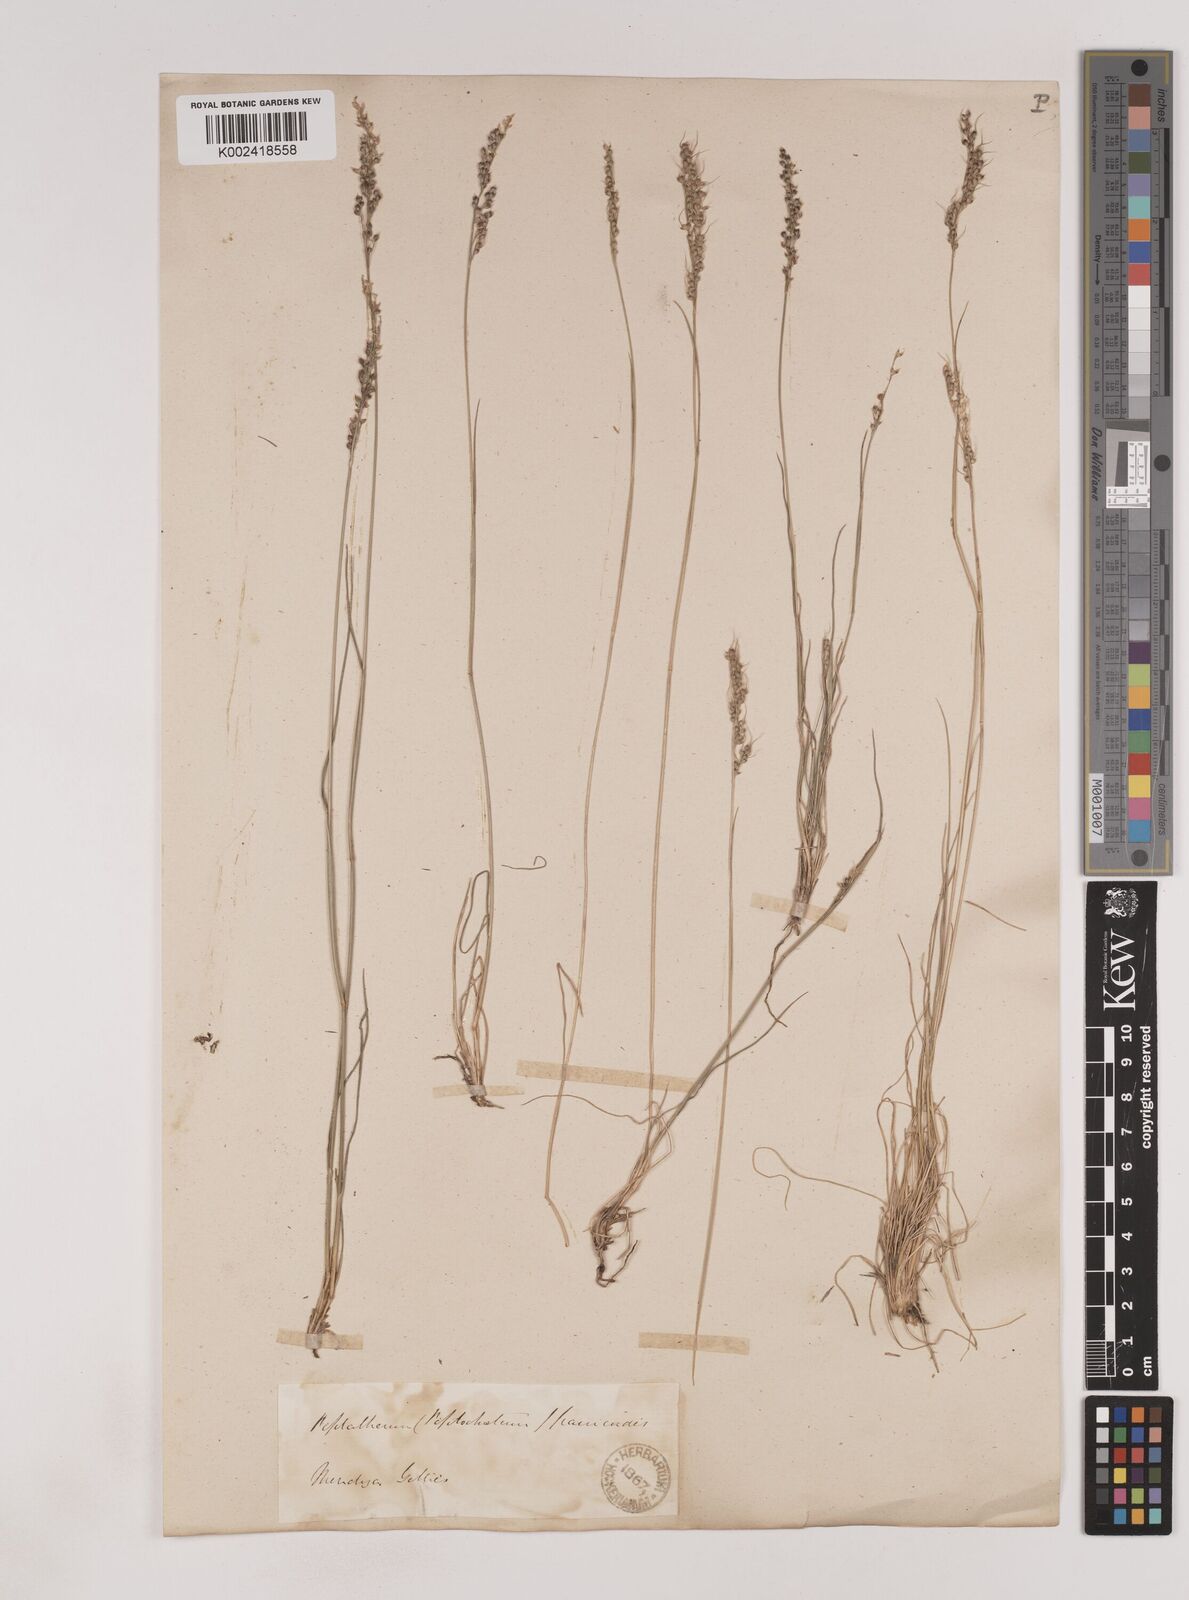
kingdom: Plantae
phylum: Tracheophyta
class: Liliopsida
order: Poales
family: Poaceae
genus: Piptochaetium
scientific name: Piptochaetium montevidense
